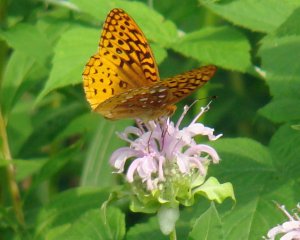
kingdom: Animalia
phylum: Arthropoda
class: Insecta
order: Lepidoptera
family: Nymphalidae
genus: Speyeria
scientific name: Speyeria cybele
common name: Great Spangled Fritillary
